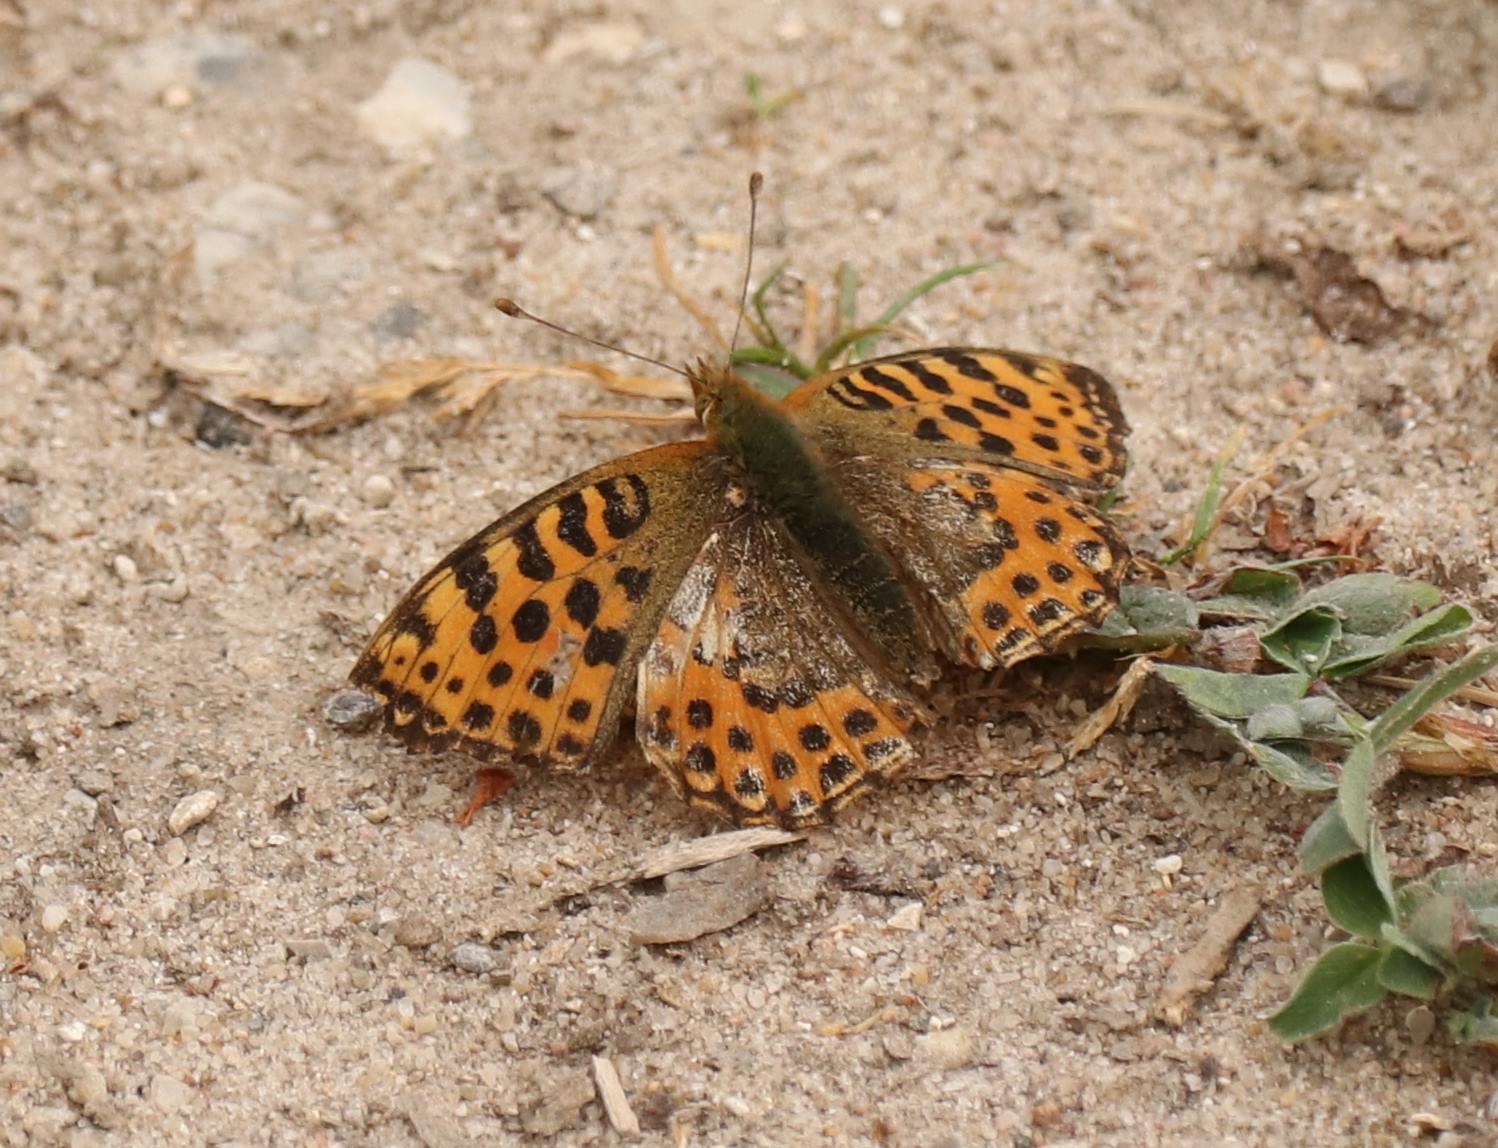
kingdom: Animalia
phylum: Arthropoda
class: Insecta
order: Lepidoptera
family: Nymphalidae
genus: Issoria
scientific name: Issoria lathonia
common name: Storplettet perlemorsommerfugl
